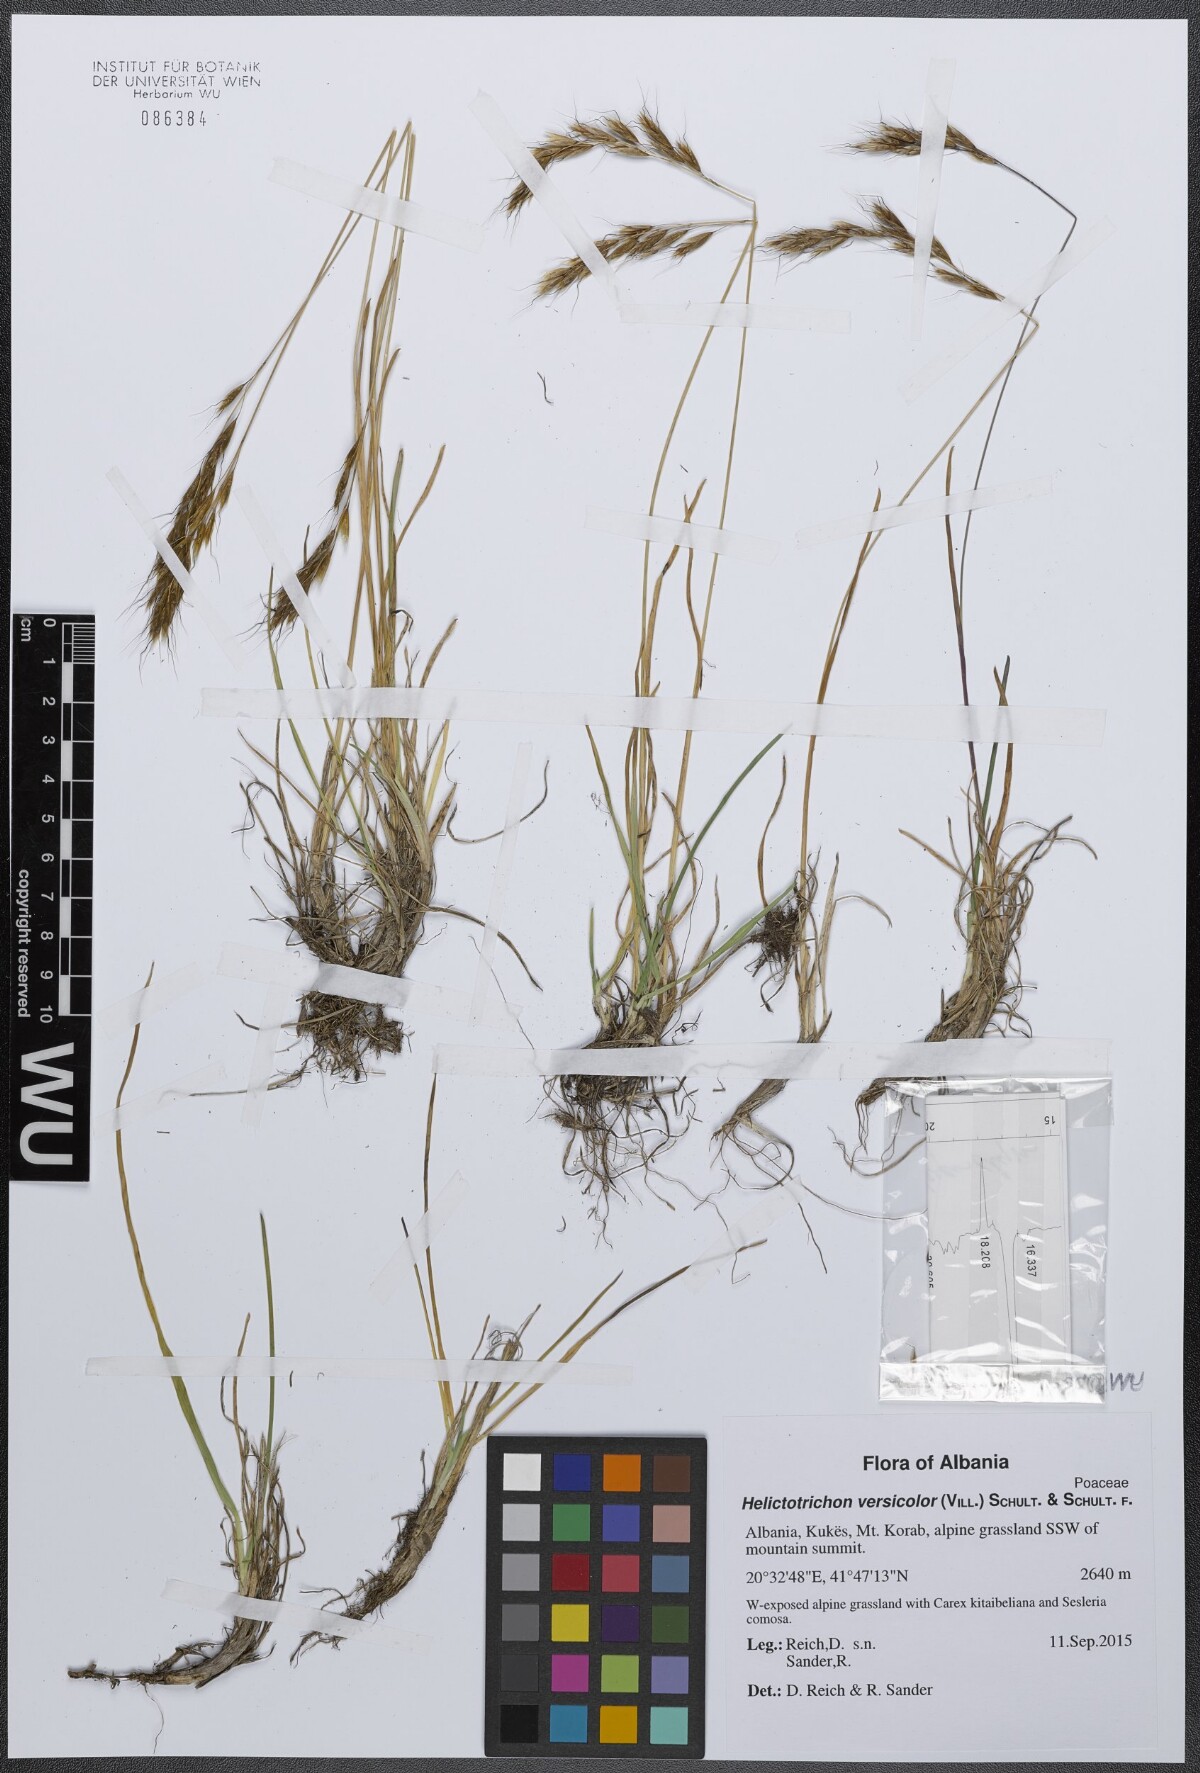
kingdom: Plantae
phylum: Tracheophyta
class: Liliopsida
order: Poales
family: Poaceae
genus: Helictochloa
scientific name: Helictochloa versicolor
